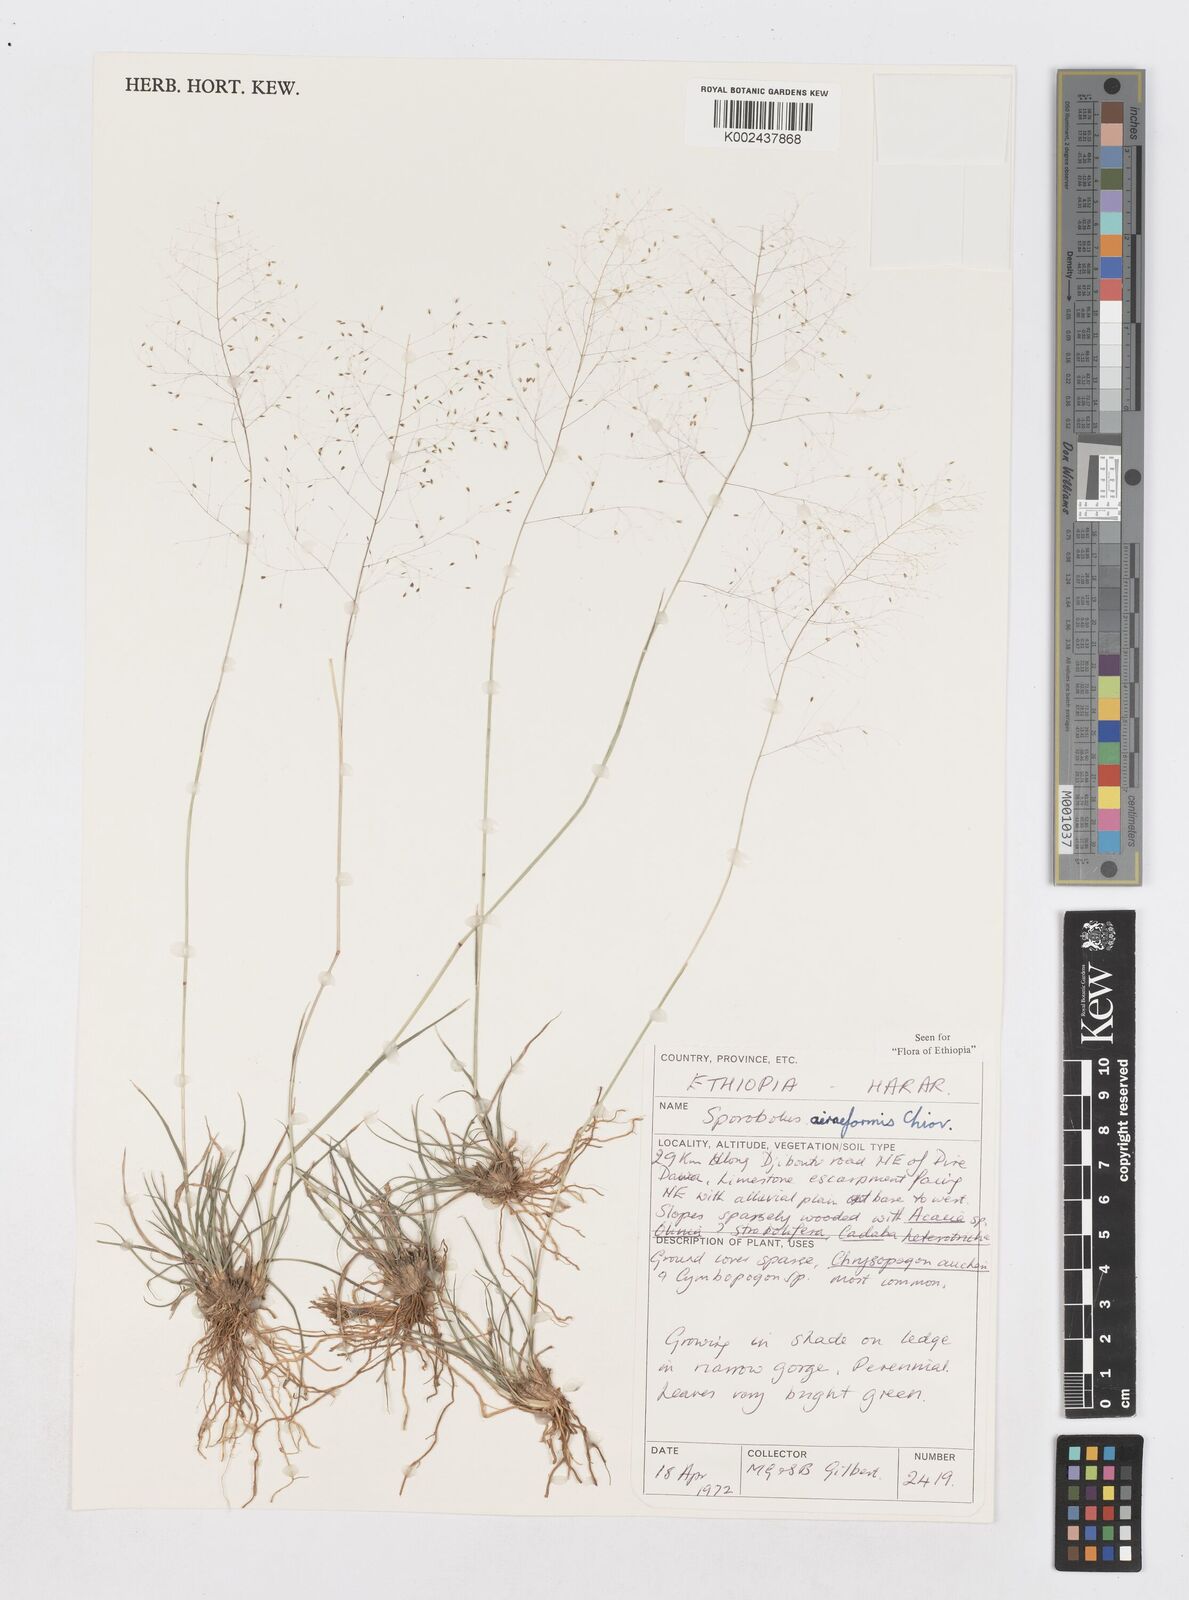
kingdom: Plantae
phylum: Tracheophyta
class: Liliopsida
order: Poales
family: Poaceae
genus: Sporobolus
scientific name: Sporobolus airiformis
